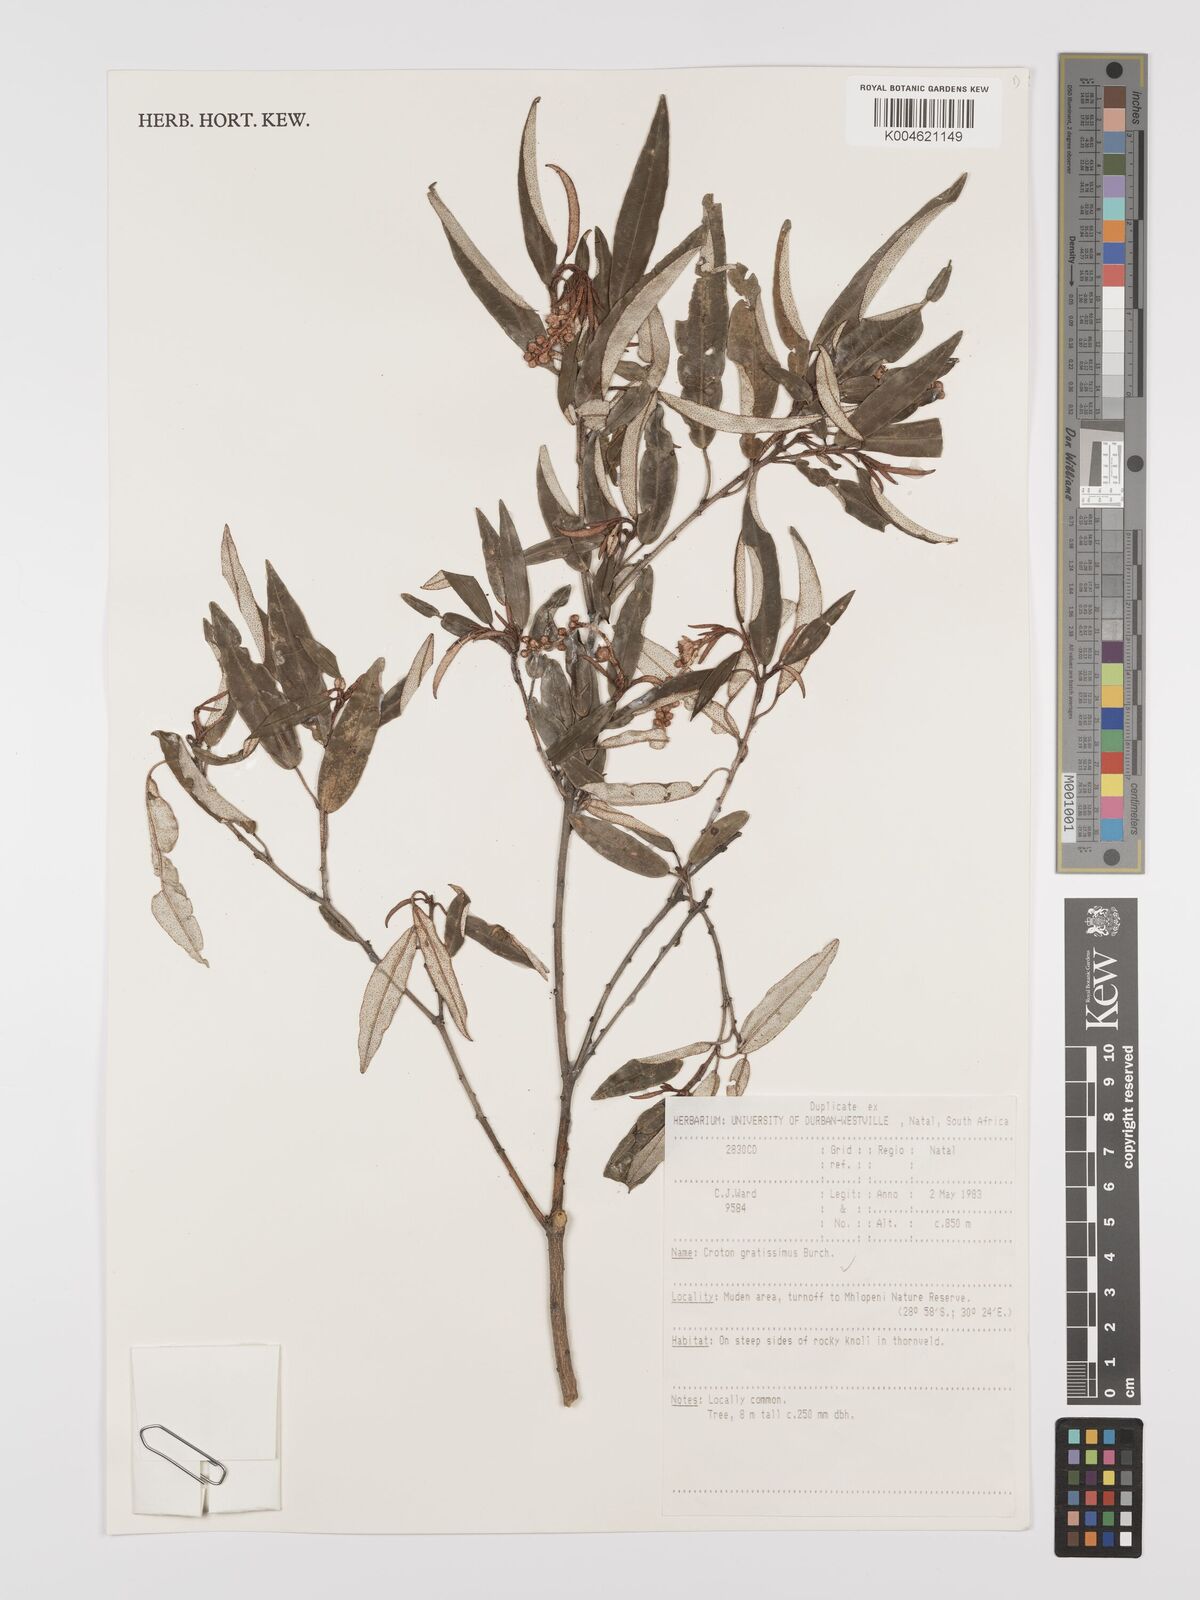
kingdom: Plantae
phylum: Tracheophyta
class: Magnoliopsida
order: Malpighiales
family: Euphorbiaceae
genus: Croton
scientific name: Croton gratissimus
